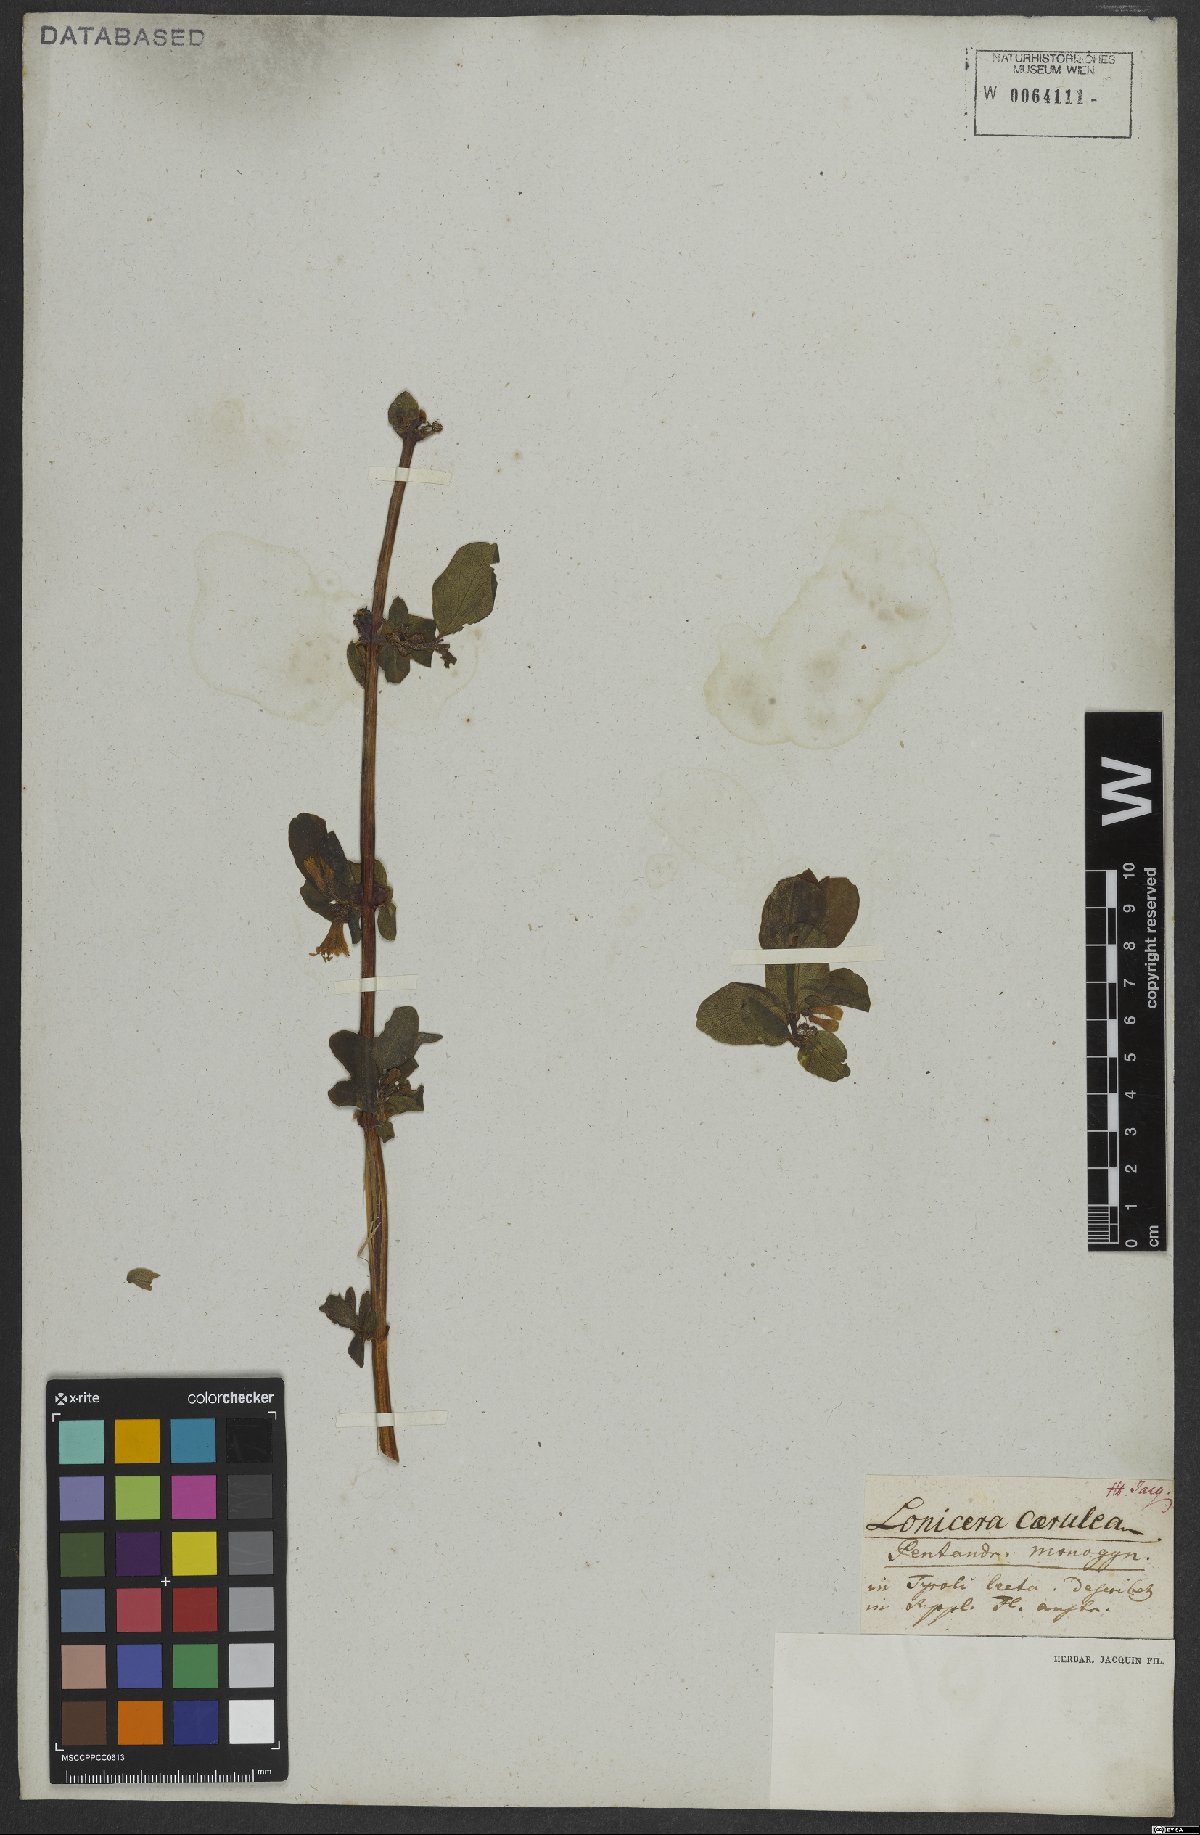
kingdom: Plantae
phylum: Tracheophyta
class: Magnoliopsida
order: Dipsacales
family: Caprifoliaceae
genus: Lonicera
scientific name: Lonicera caerulea
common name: Blue honeysuckle
